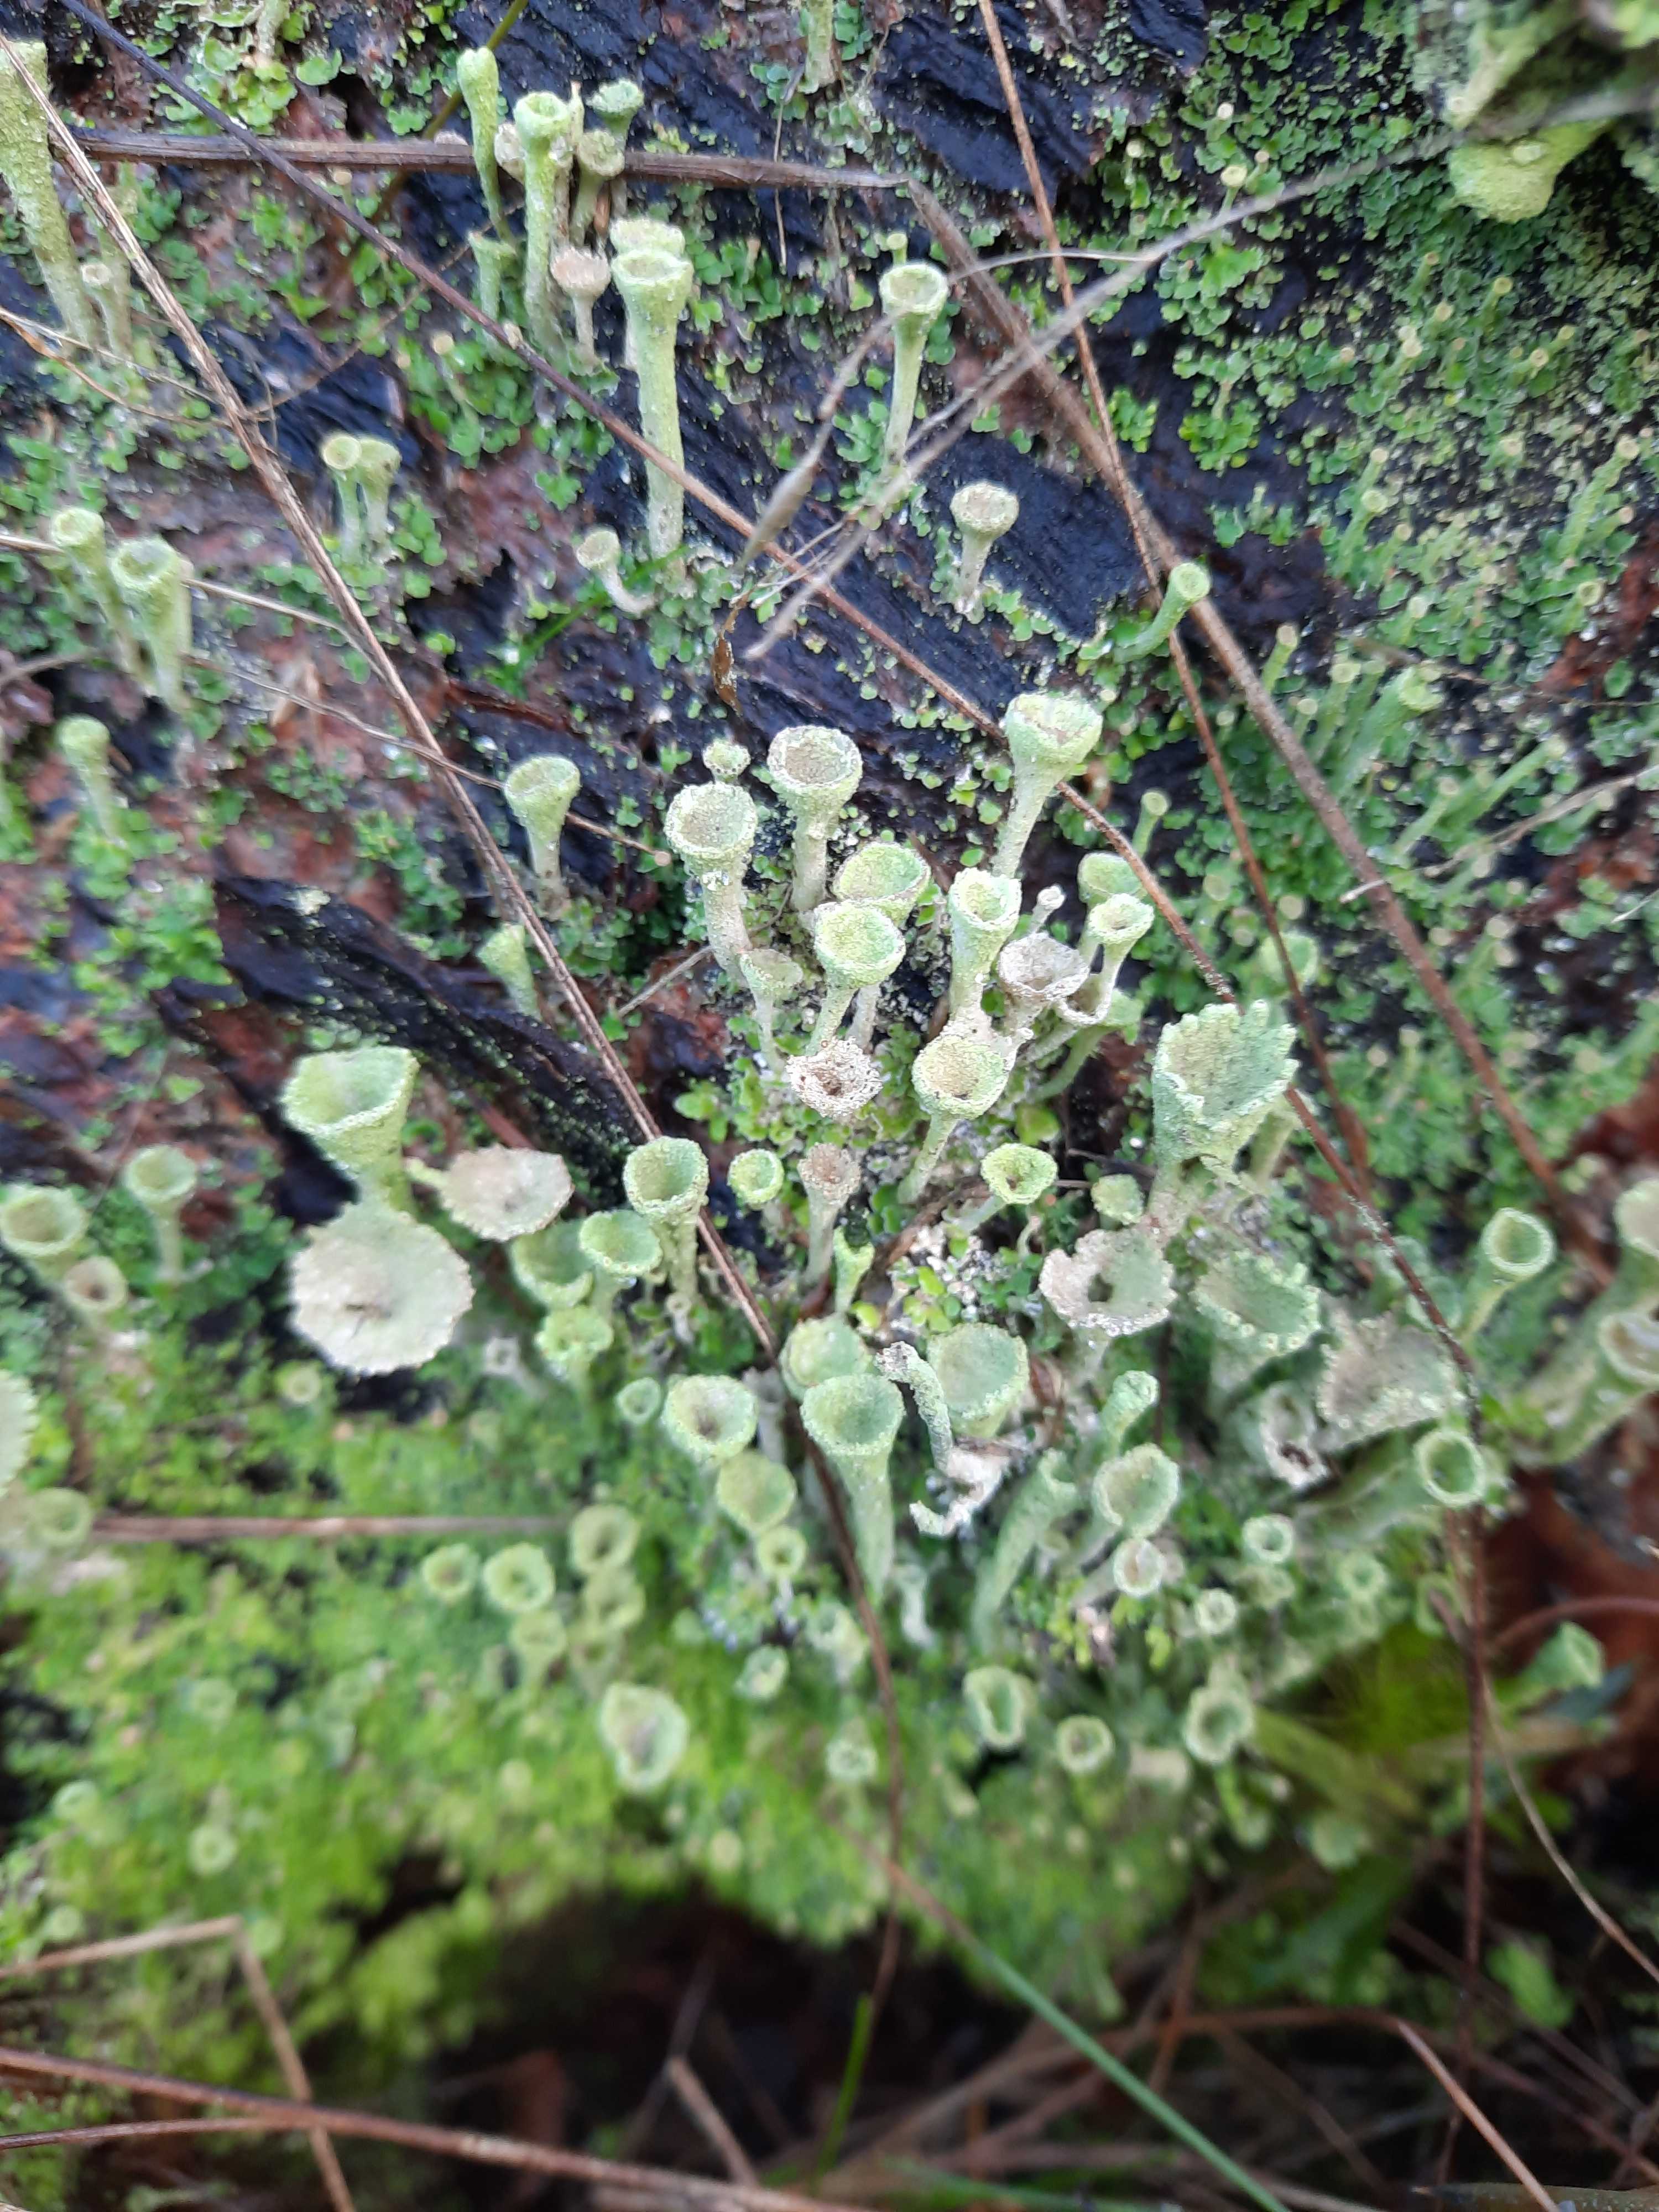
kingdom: Fungi
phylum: Ascomycota
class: Lecanoromycetes
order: Lecanorales
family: Cladoniaceae
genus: Cladonia
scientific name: Cladonia
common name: brungrøn bægerlav
